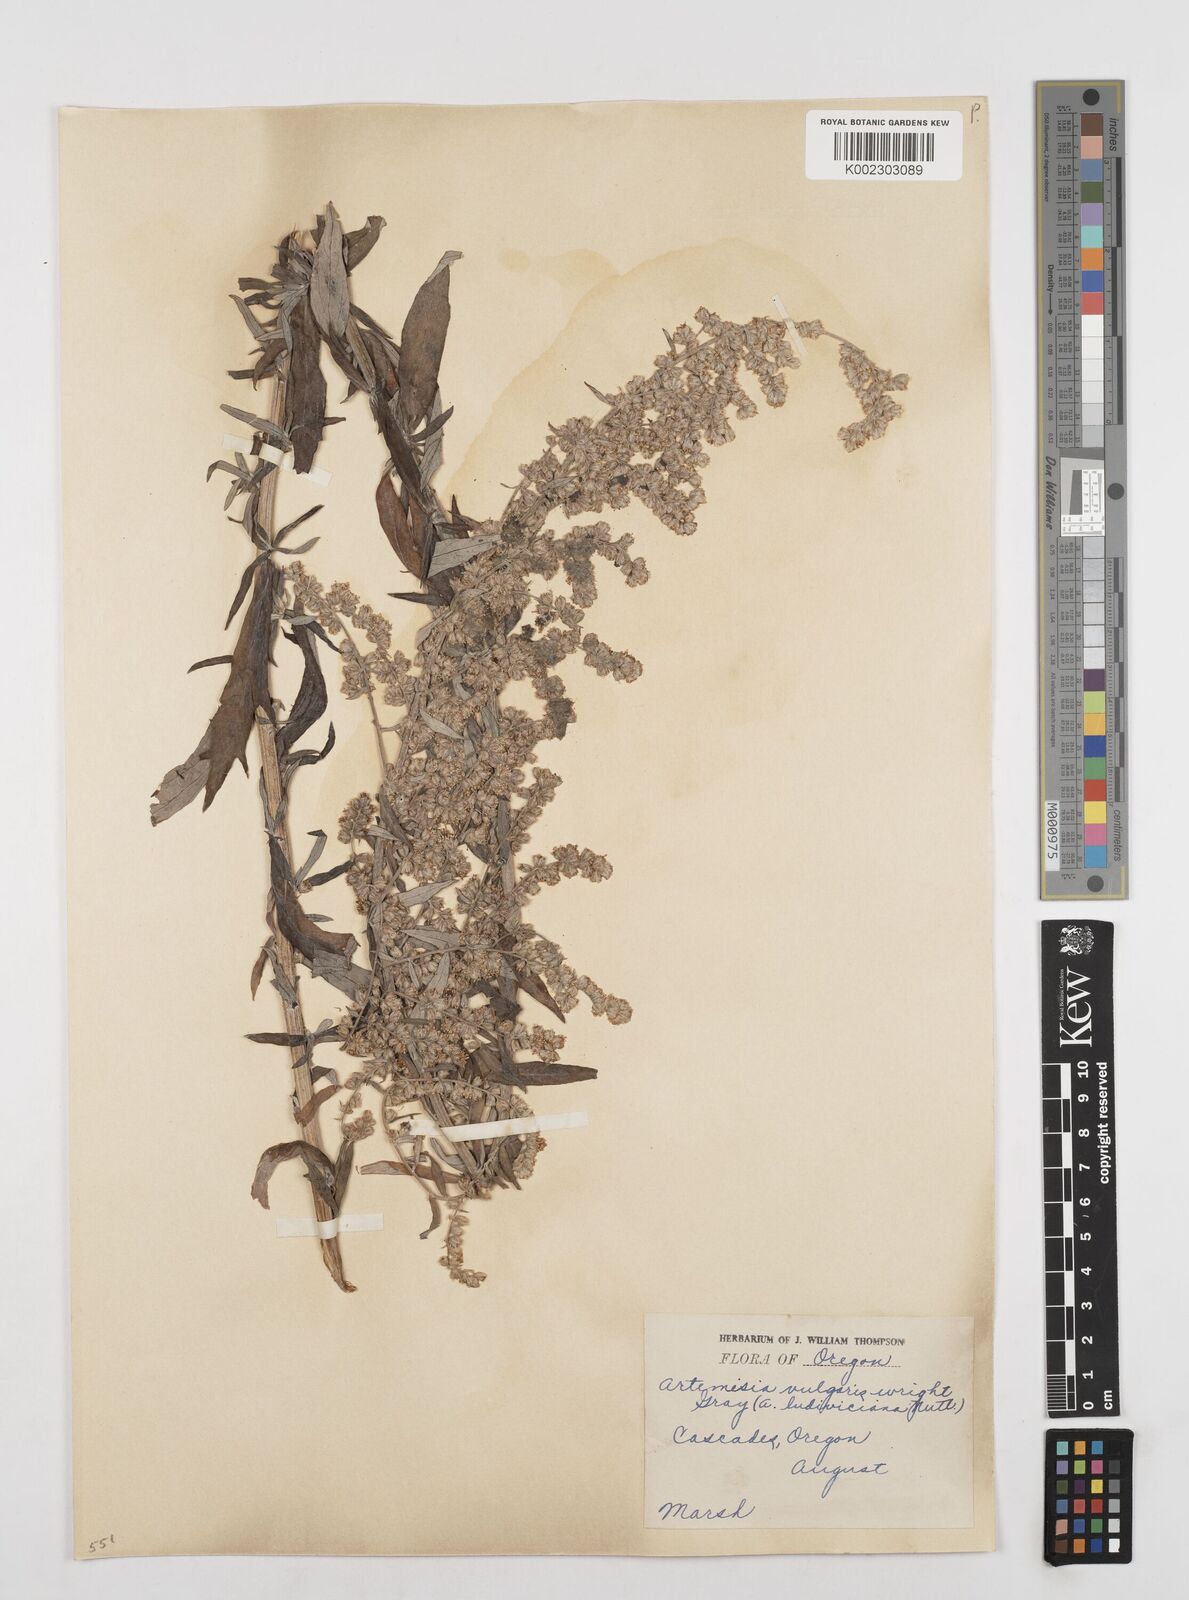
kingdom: Plantae
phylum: Tracheophyta
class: Magnoliopsida
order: Asterales
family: Asteraceae
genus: Artemisia
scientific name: Artemisia vulgaris
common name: Mugwort
